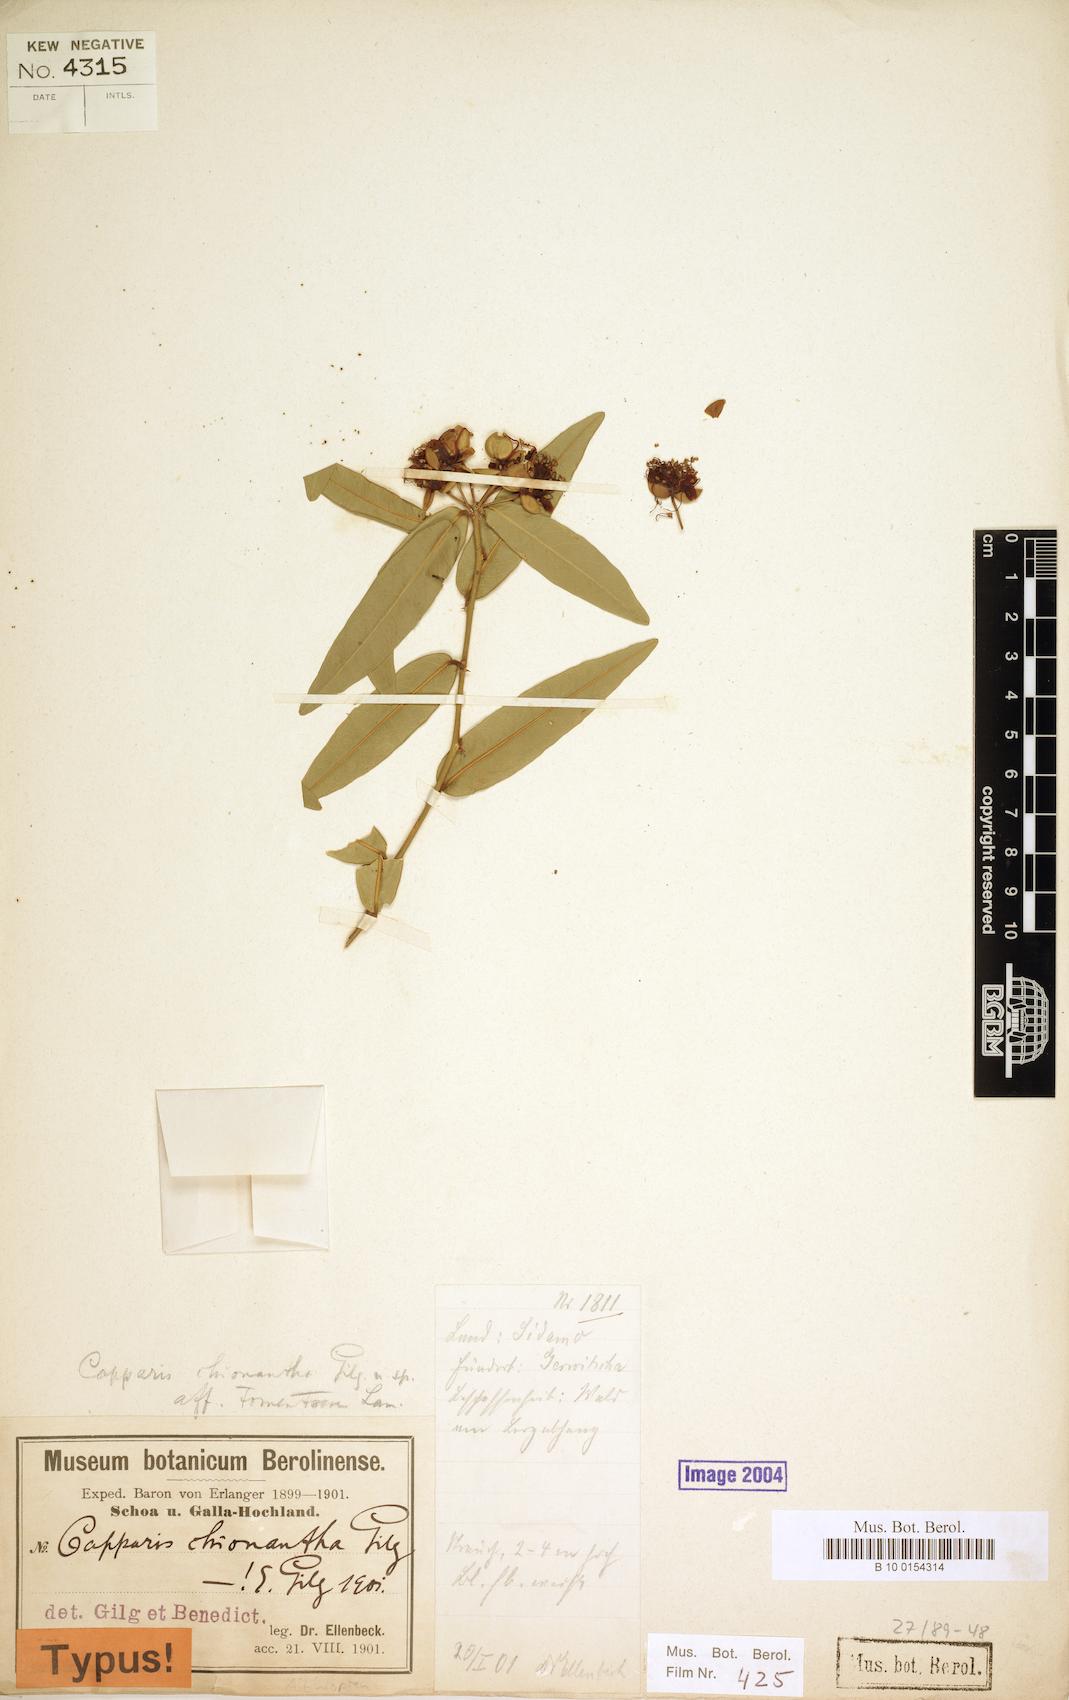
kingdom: Plantae
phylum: Tracheophyta
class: Magnoliopsida
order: Brassicales
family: Capparaceae
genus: Capparis
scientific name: Capparis sepiaria
